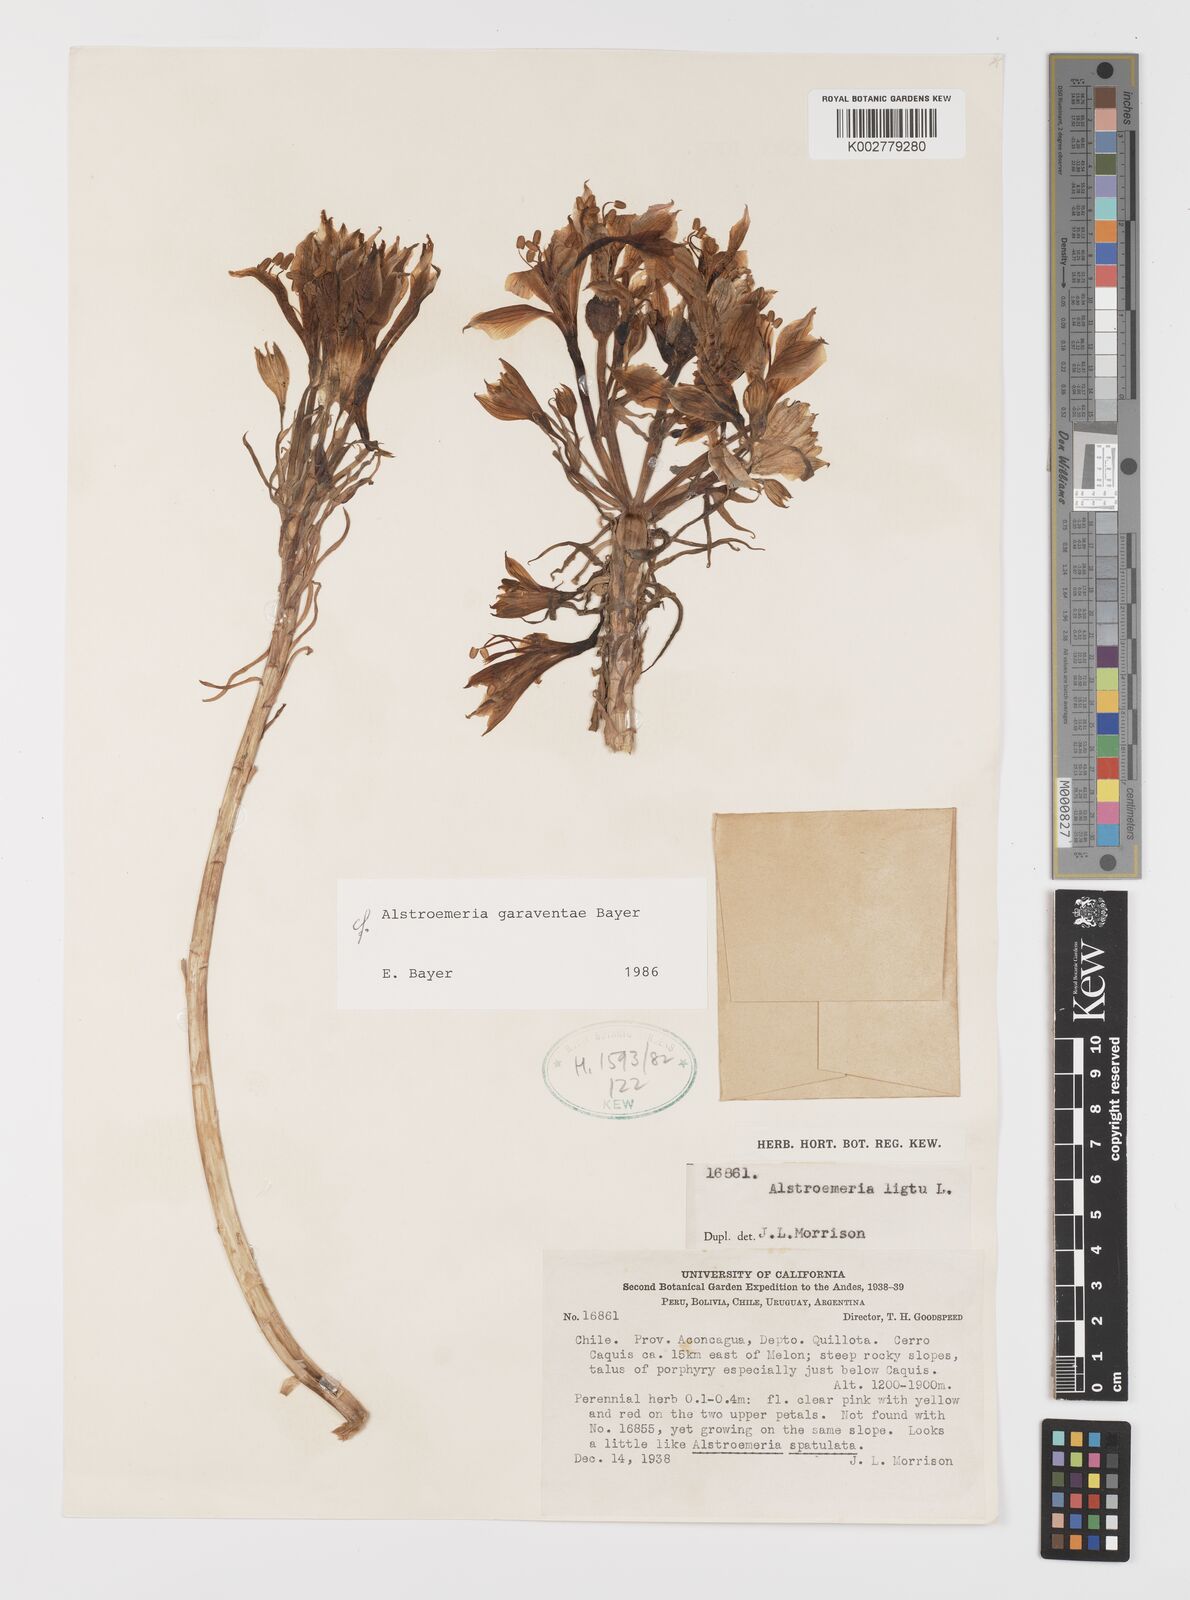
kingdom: Plantae
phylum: Tracheophyta
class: Liliopsida
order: Liliales
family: Alstroemeriaceae
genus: Alstroemeria
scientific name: Alstroemeria garaventae
